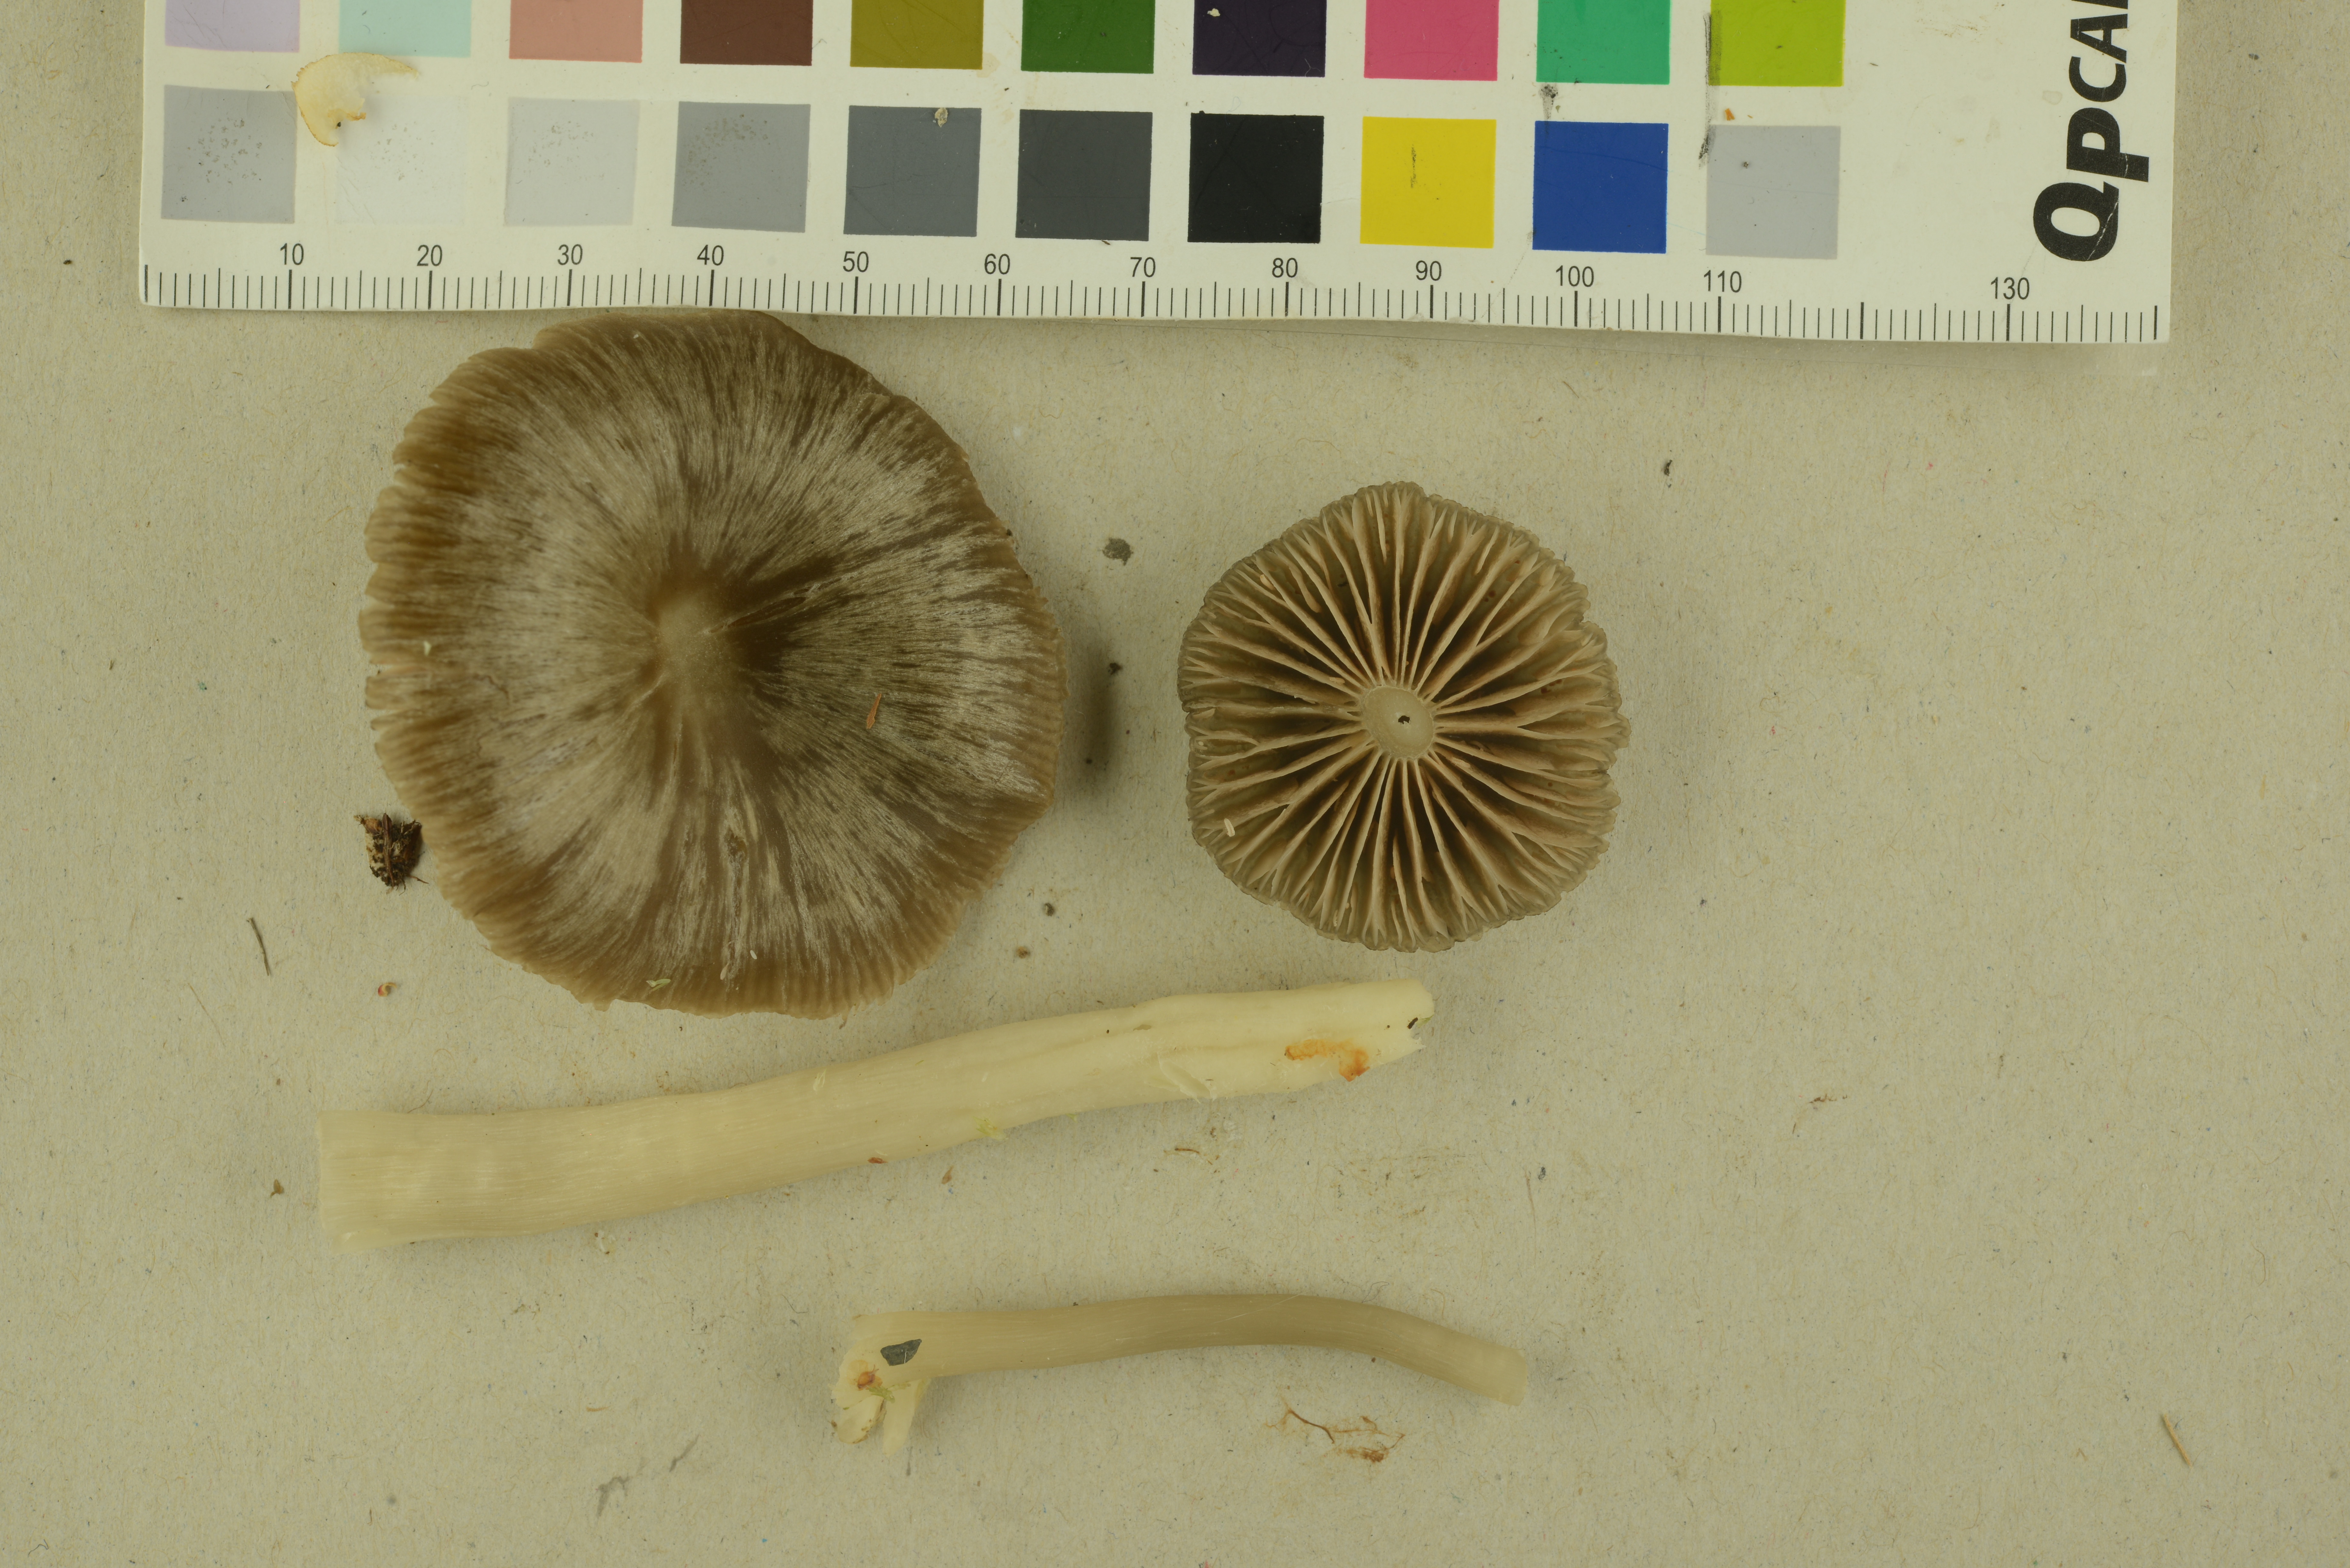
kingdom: Fungi
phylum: Basidiomycota
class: Agaricomycetes
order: Agaricales
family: Entolomataceae
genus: Entoloma
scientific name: Entoloma rhodopolium
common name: Wood pinkgill
